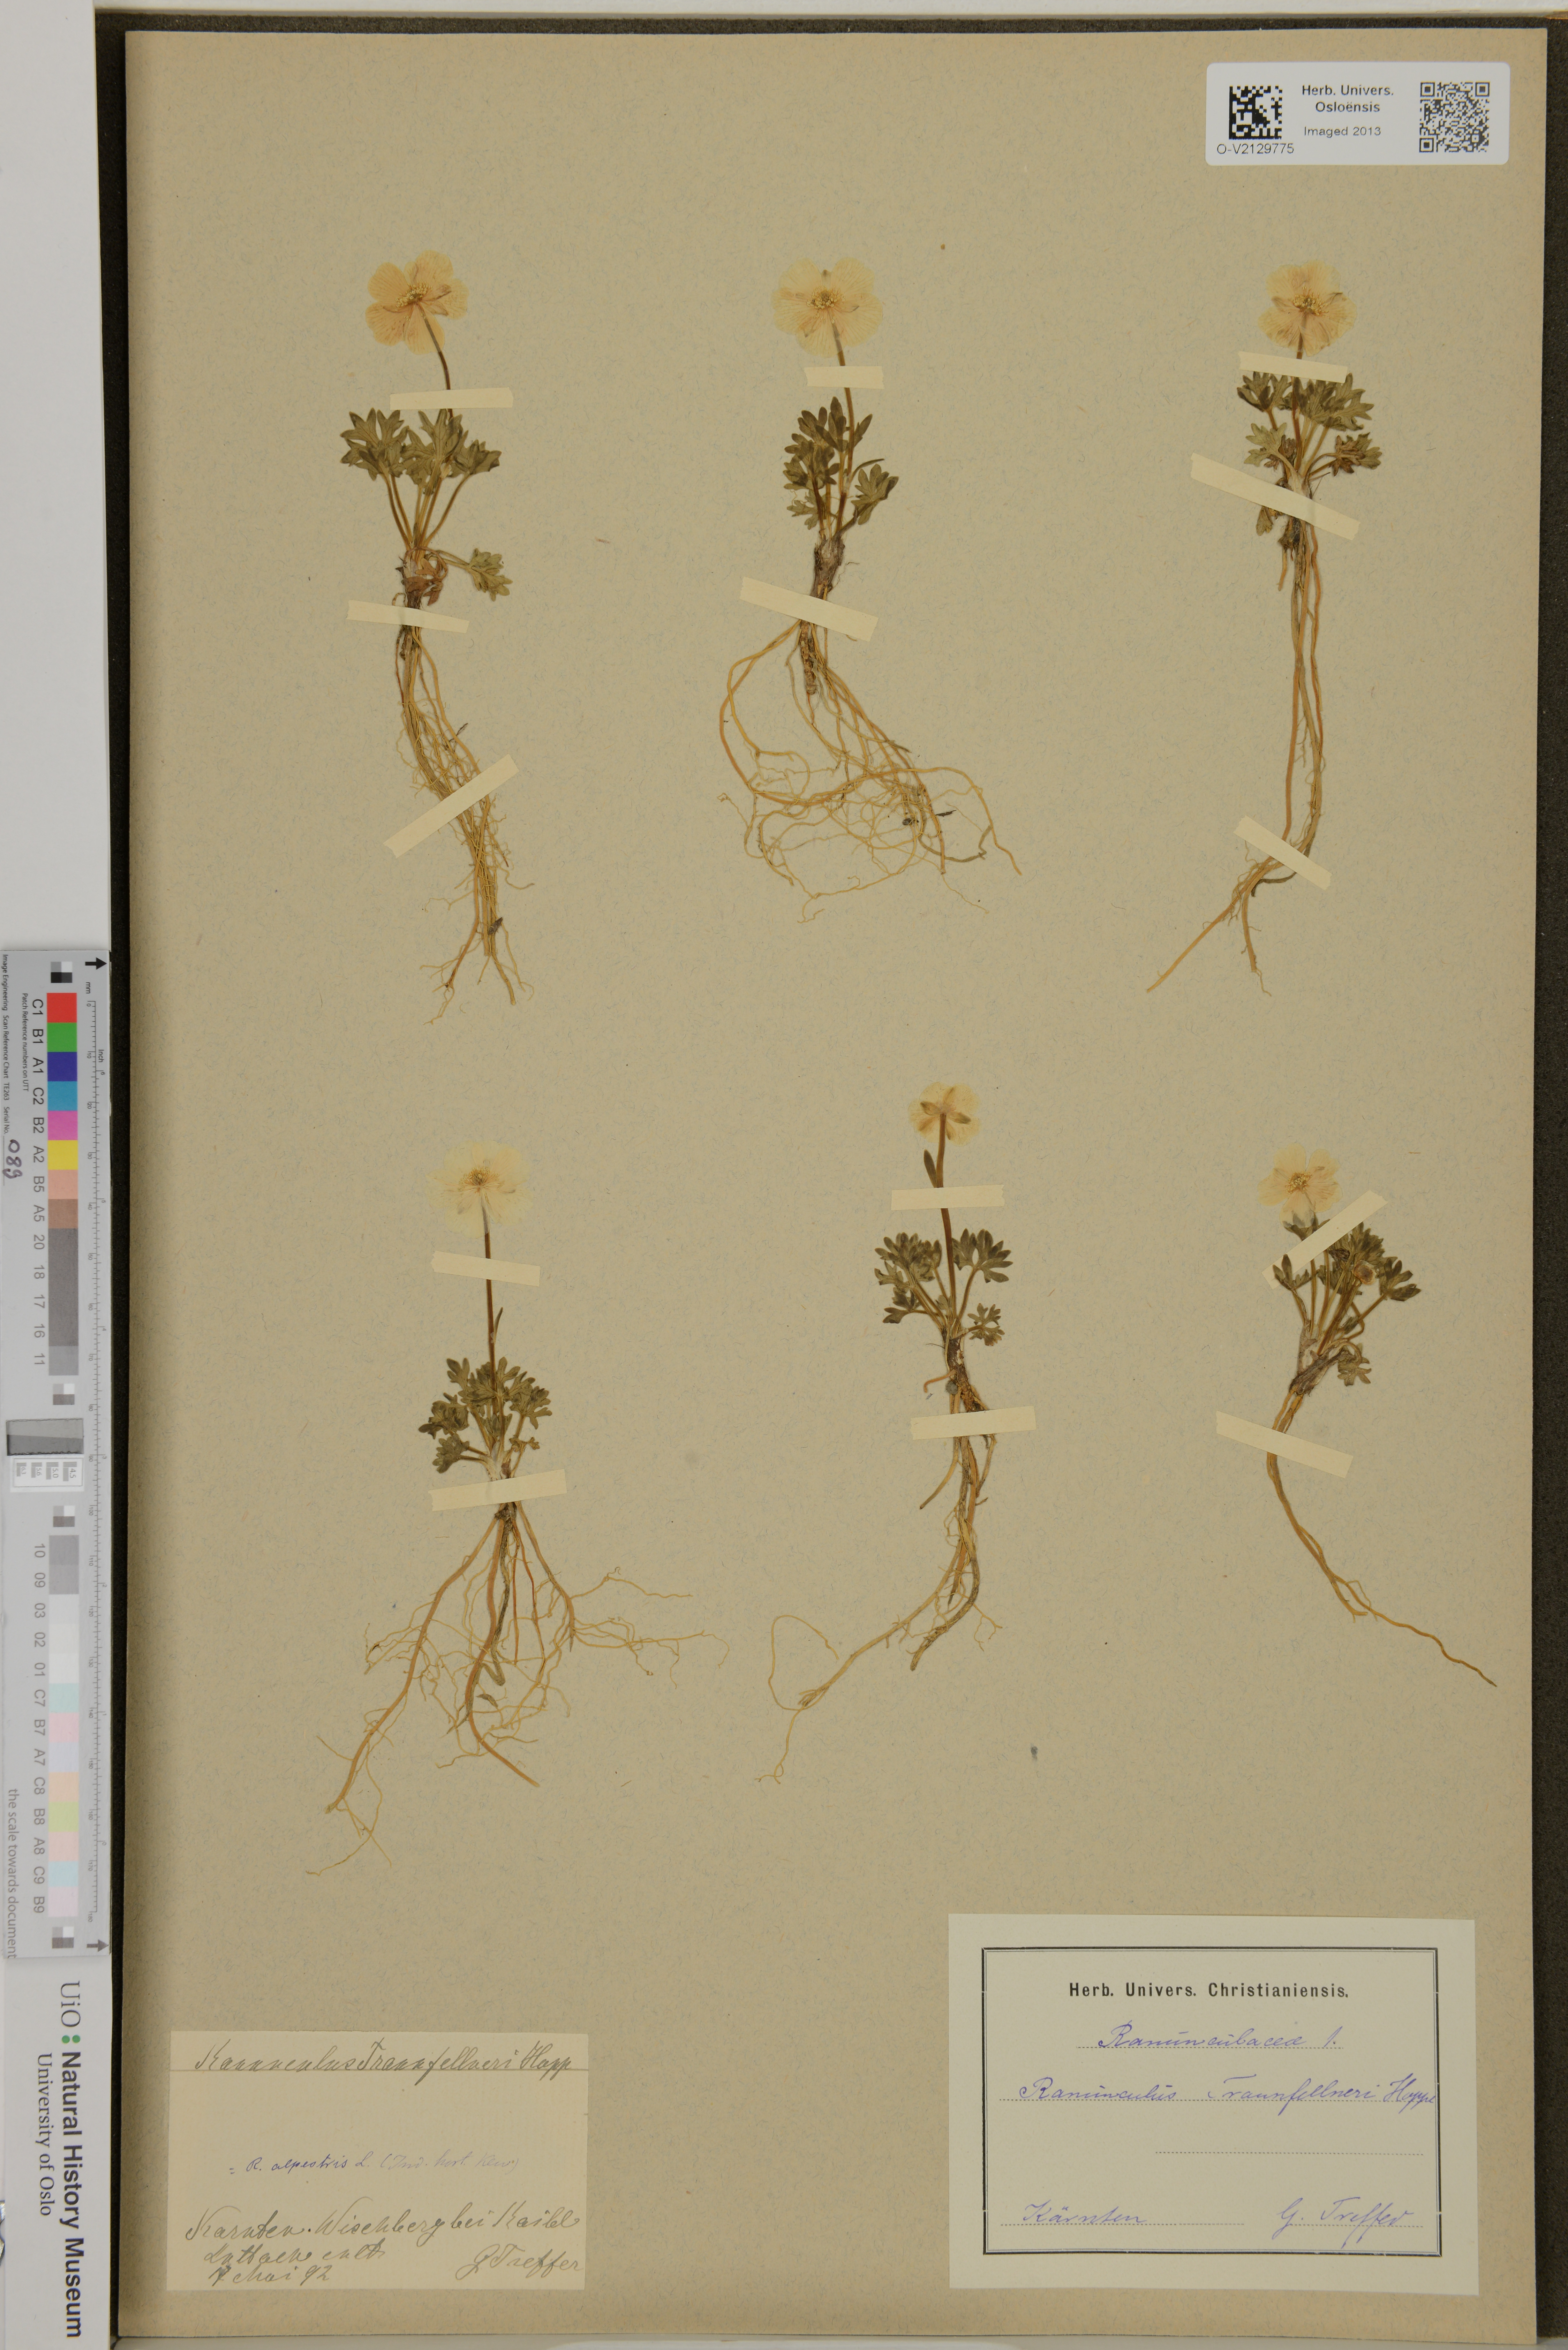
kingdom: Plantae
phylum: Tracheophyta
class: Magnoliopsida
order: Ranunculales
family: Ranunculaceae
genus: Ranunculus
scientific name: Ranunculus traunfellneri
